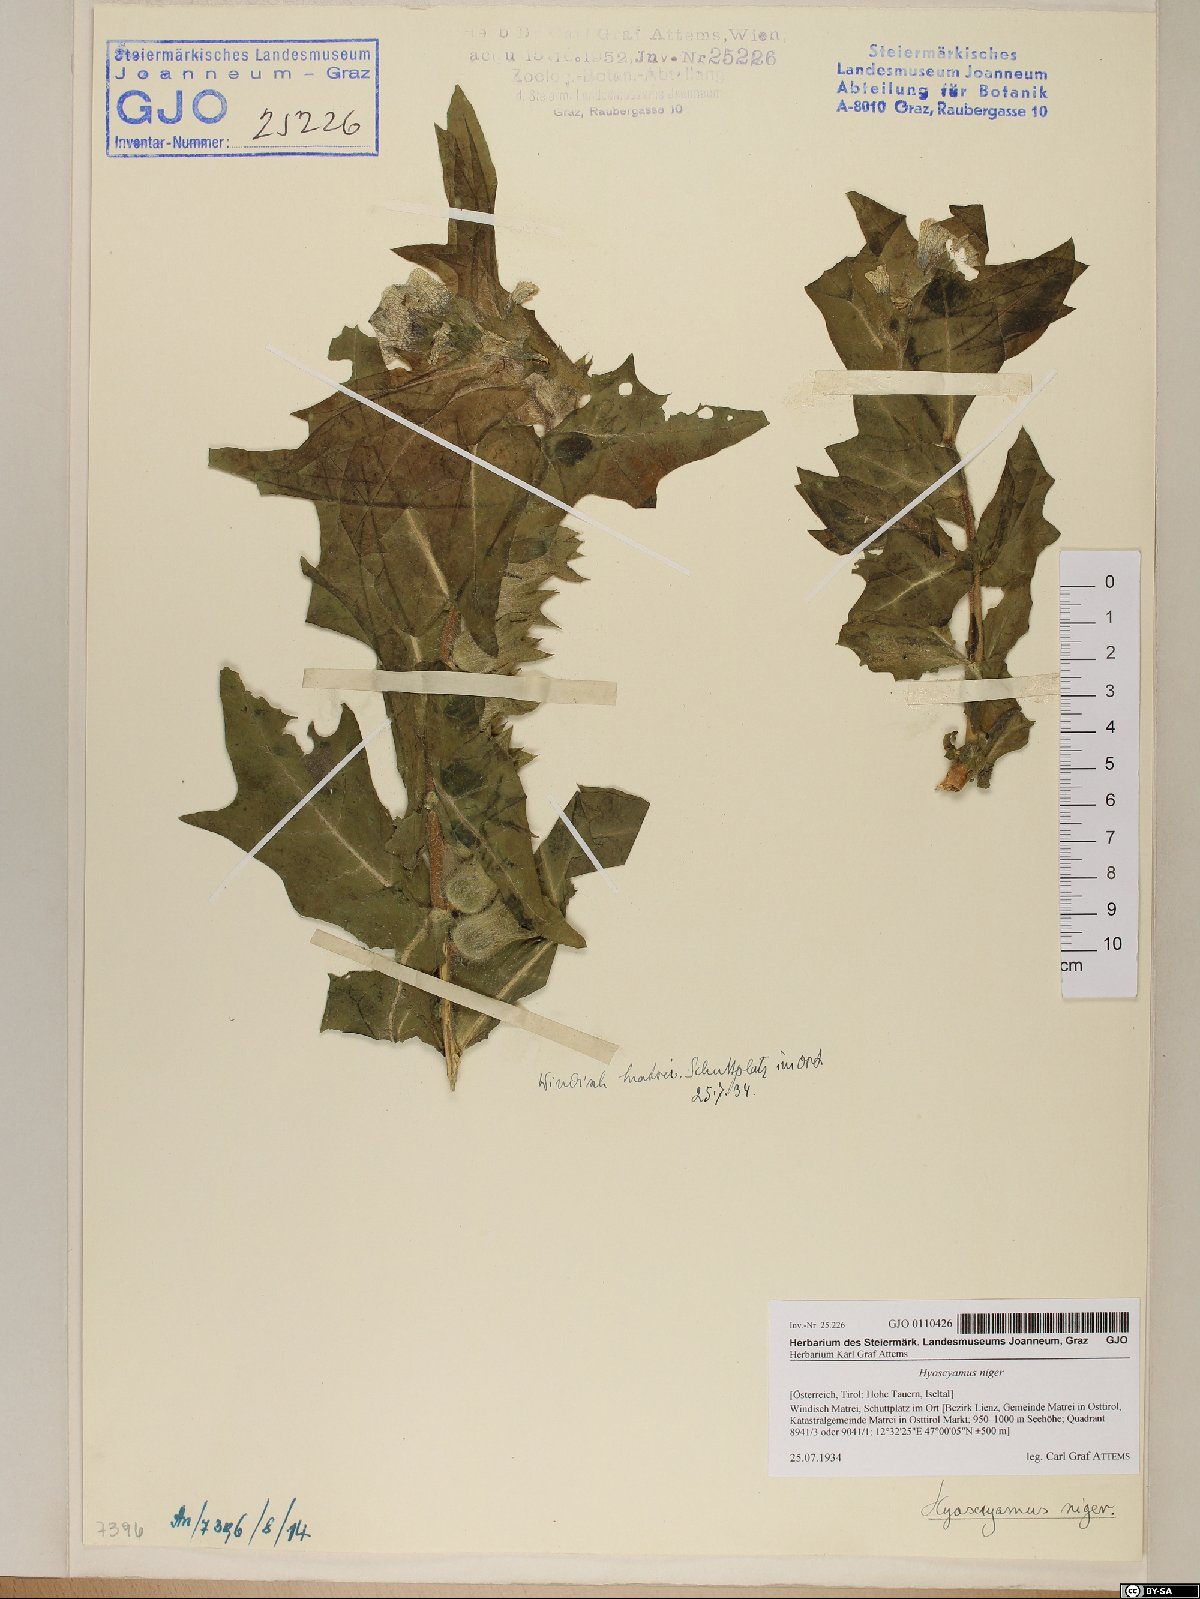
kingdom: Plantae
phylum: Tracheophyta
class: Magnoliopsida
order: Solanales
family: Solanaceae
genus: Hyoscyamus
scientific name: Hyoscyamus niger
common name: Henbane
